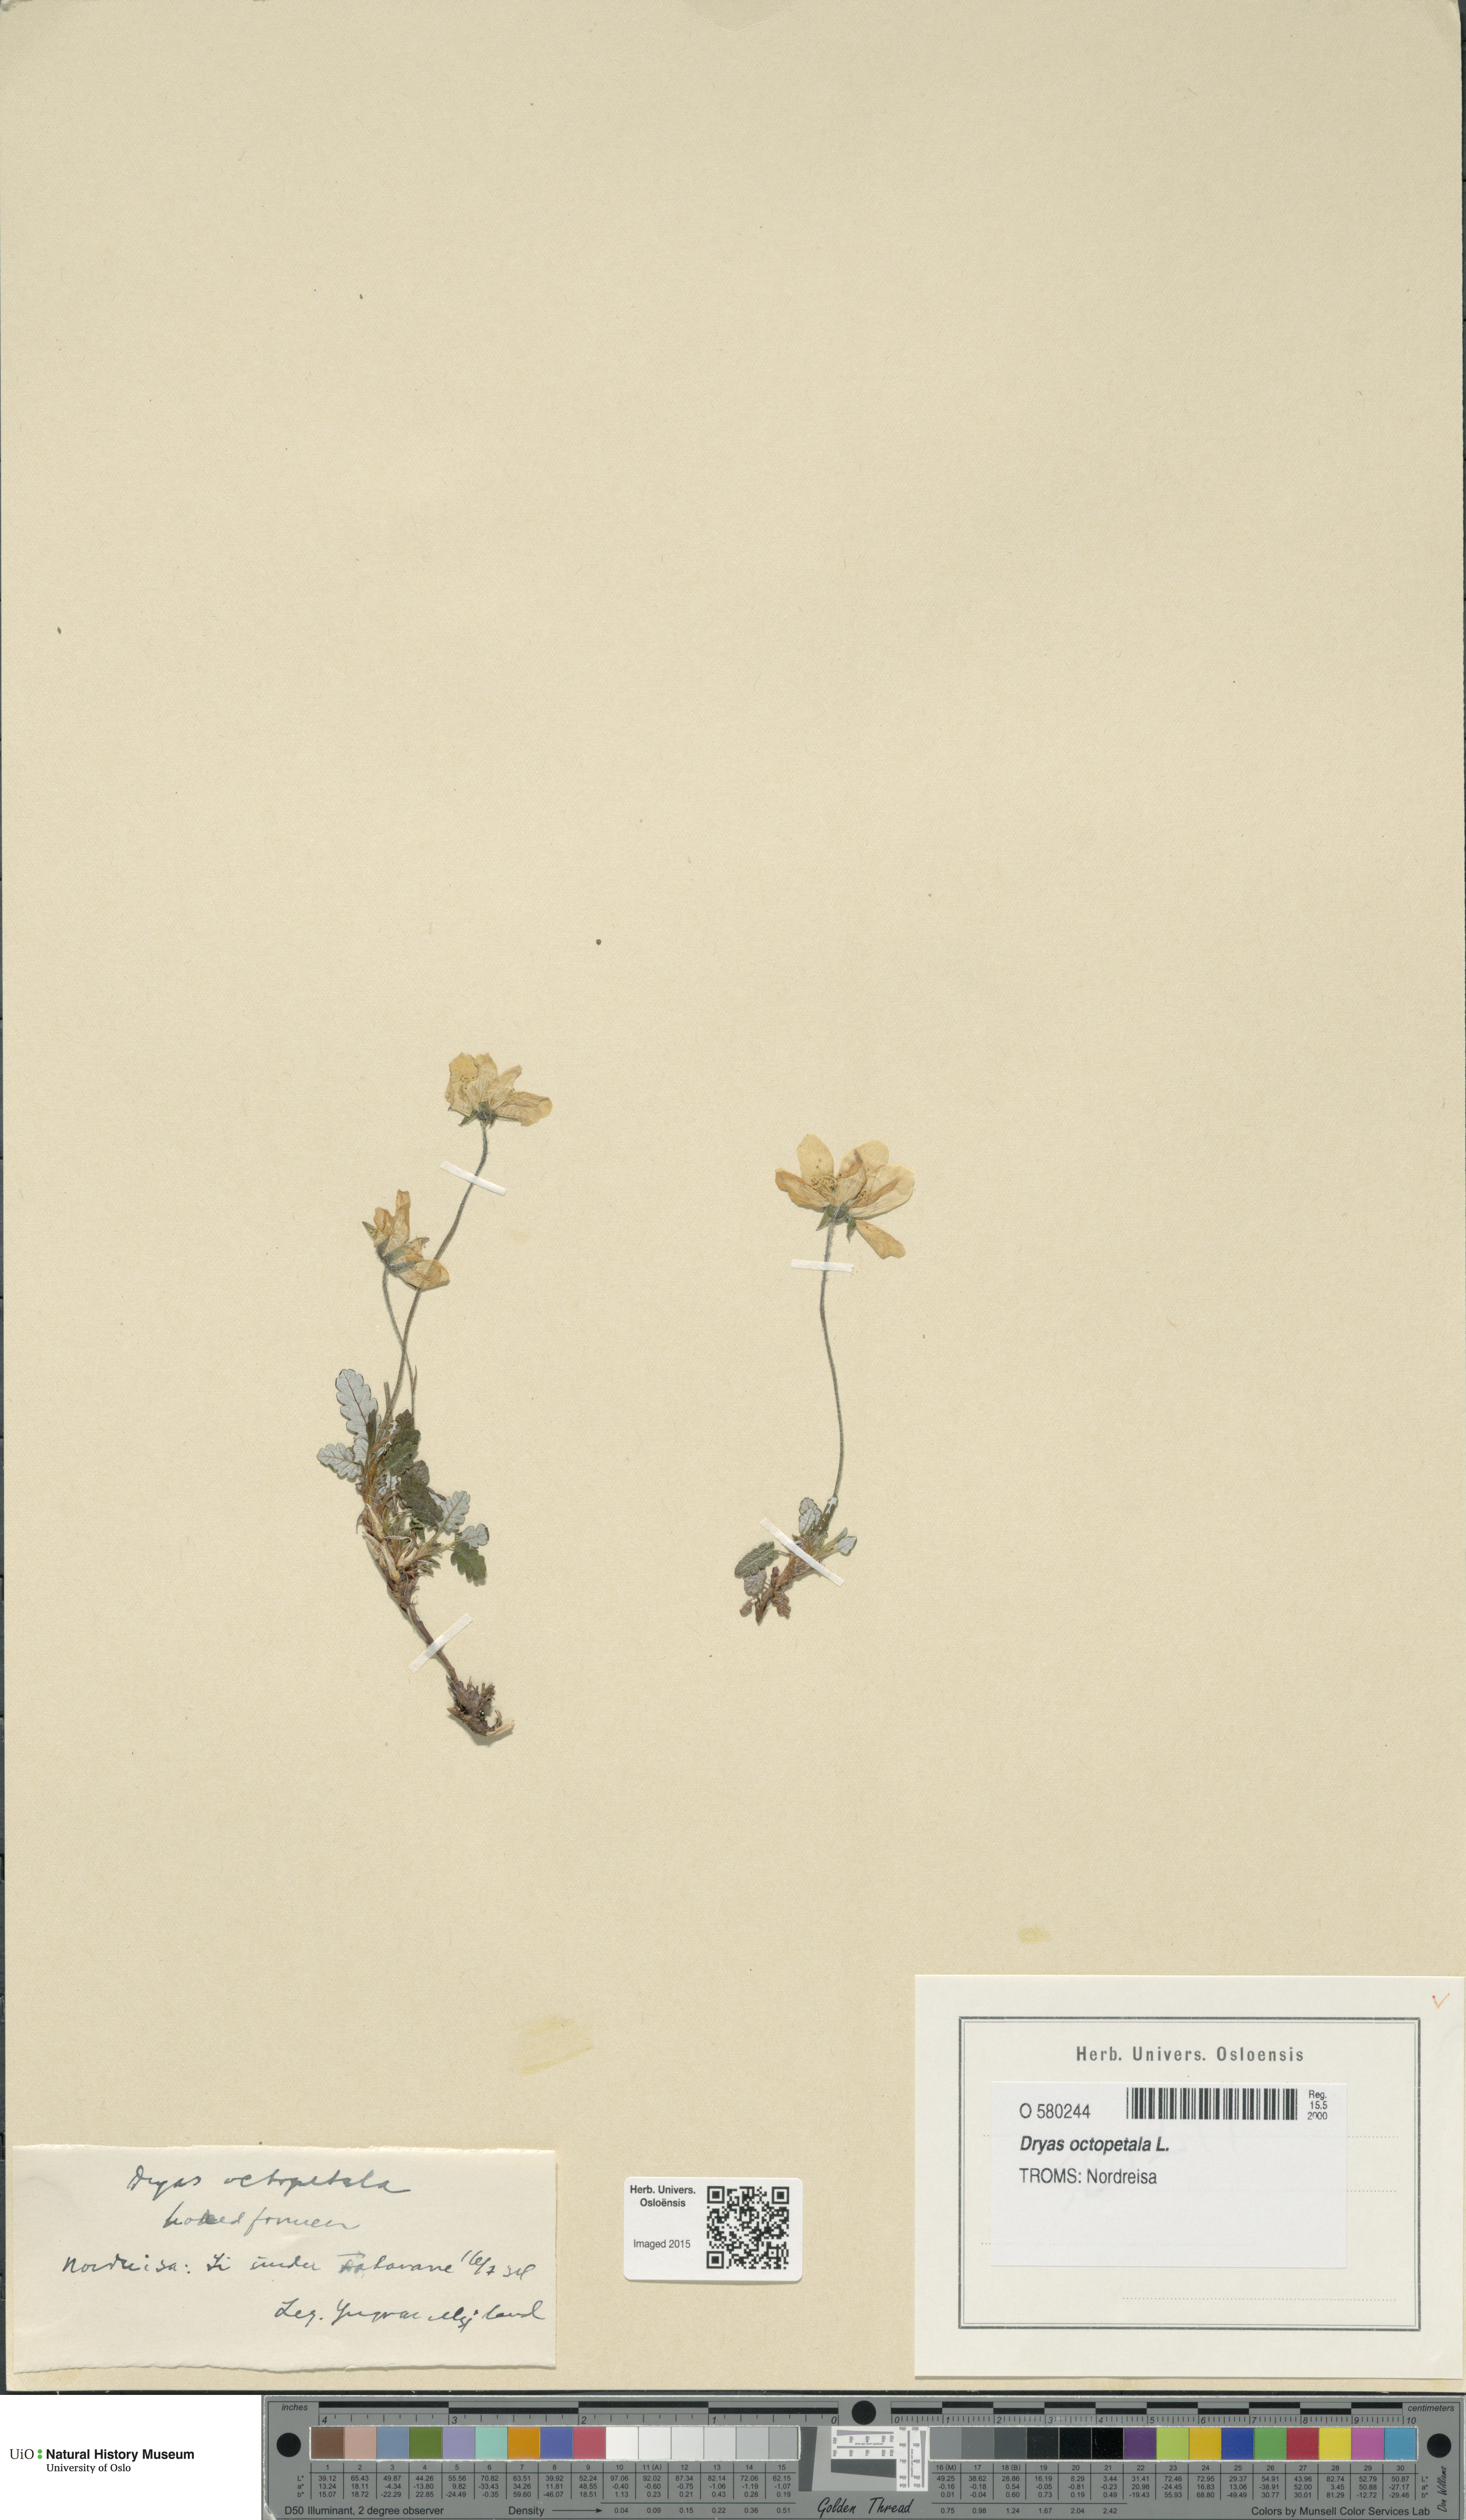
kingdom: Plantae
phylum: Tracheophyta
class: Magnoliopsida
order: Rosales
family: Rosaceae
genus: Dryas
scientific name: Dryas octopetala
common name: Eight-petal mountain-avens
